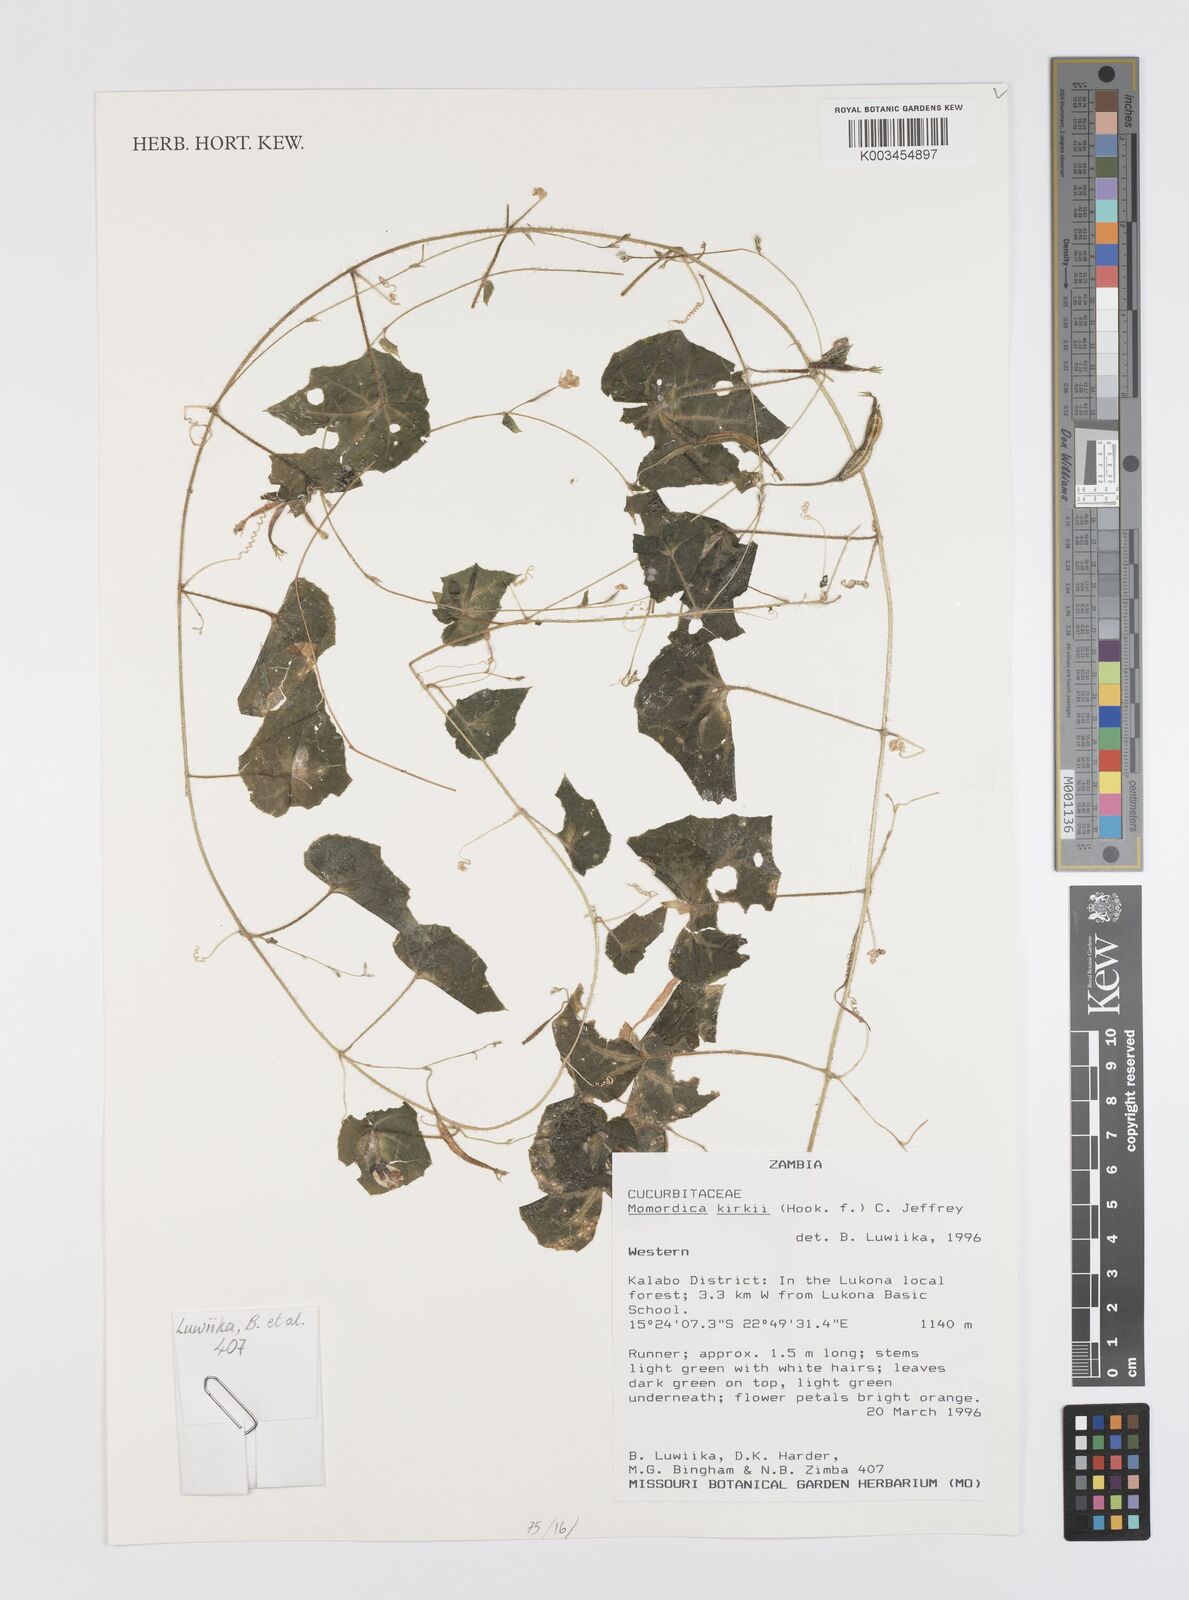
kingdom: Plantae
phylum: Tracheophyta
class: Magnoliopsida
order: Cucurbitales
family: Cucurbitaceae
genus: Momordica
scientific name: Momordica kirkii
